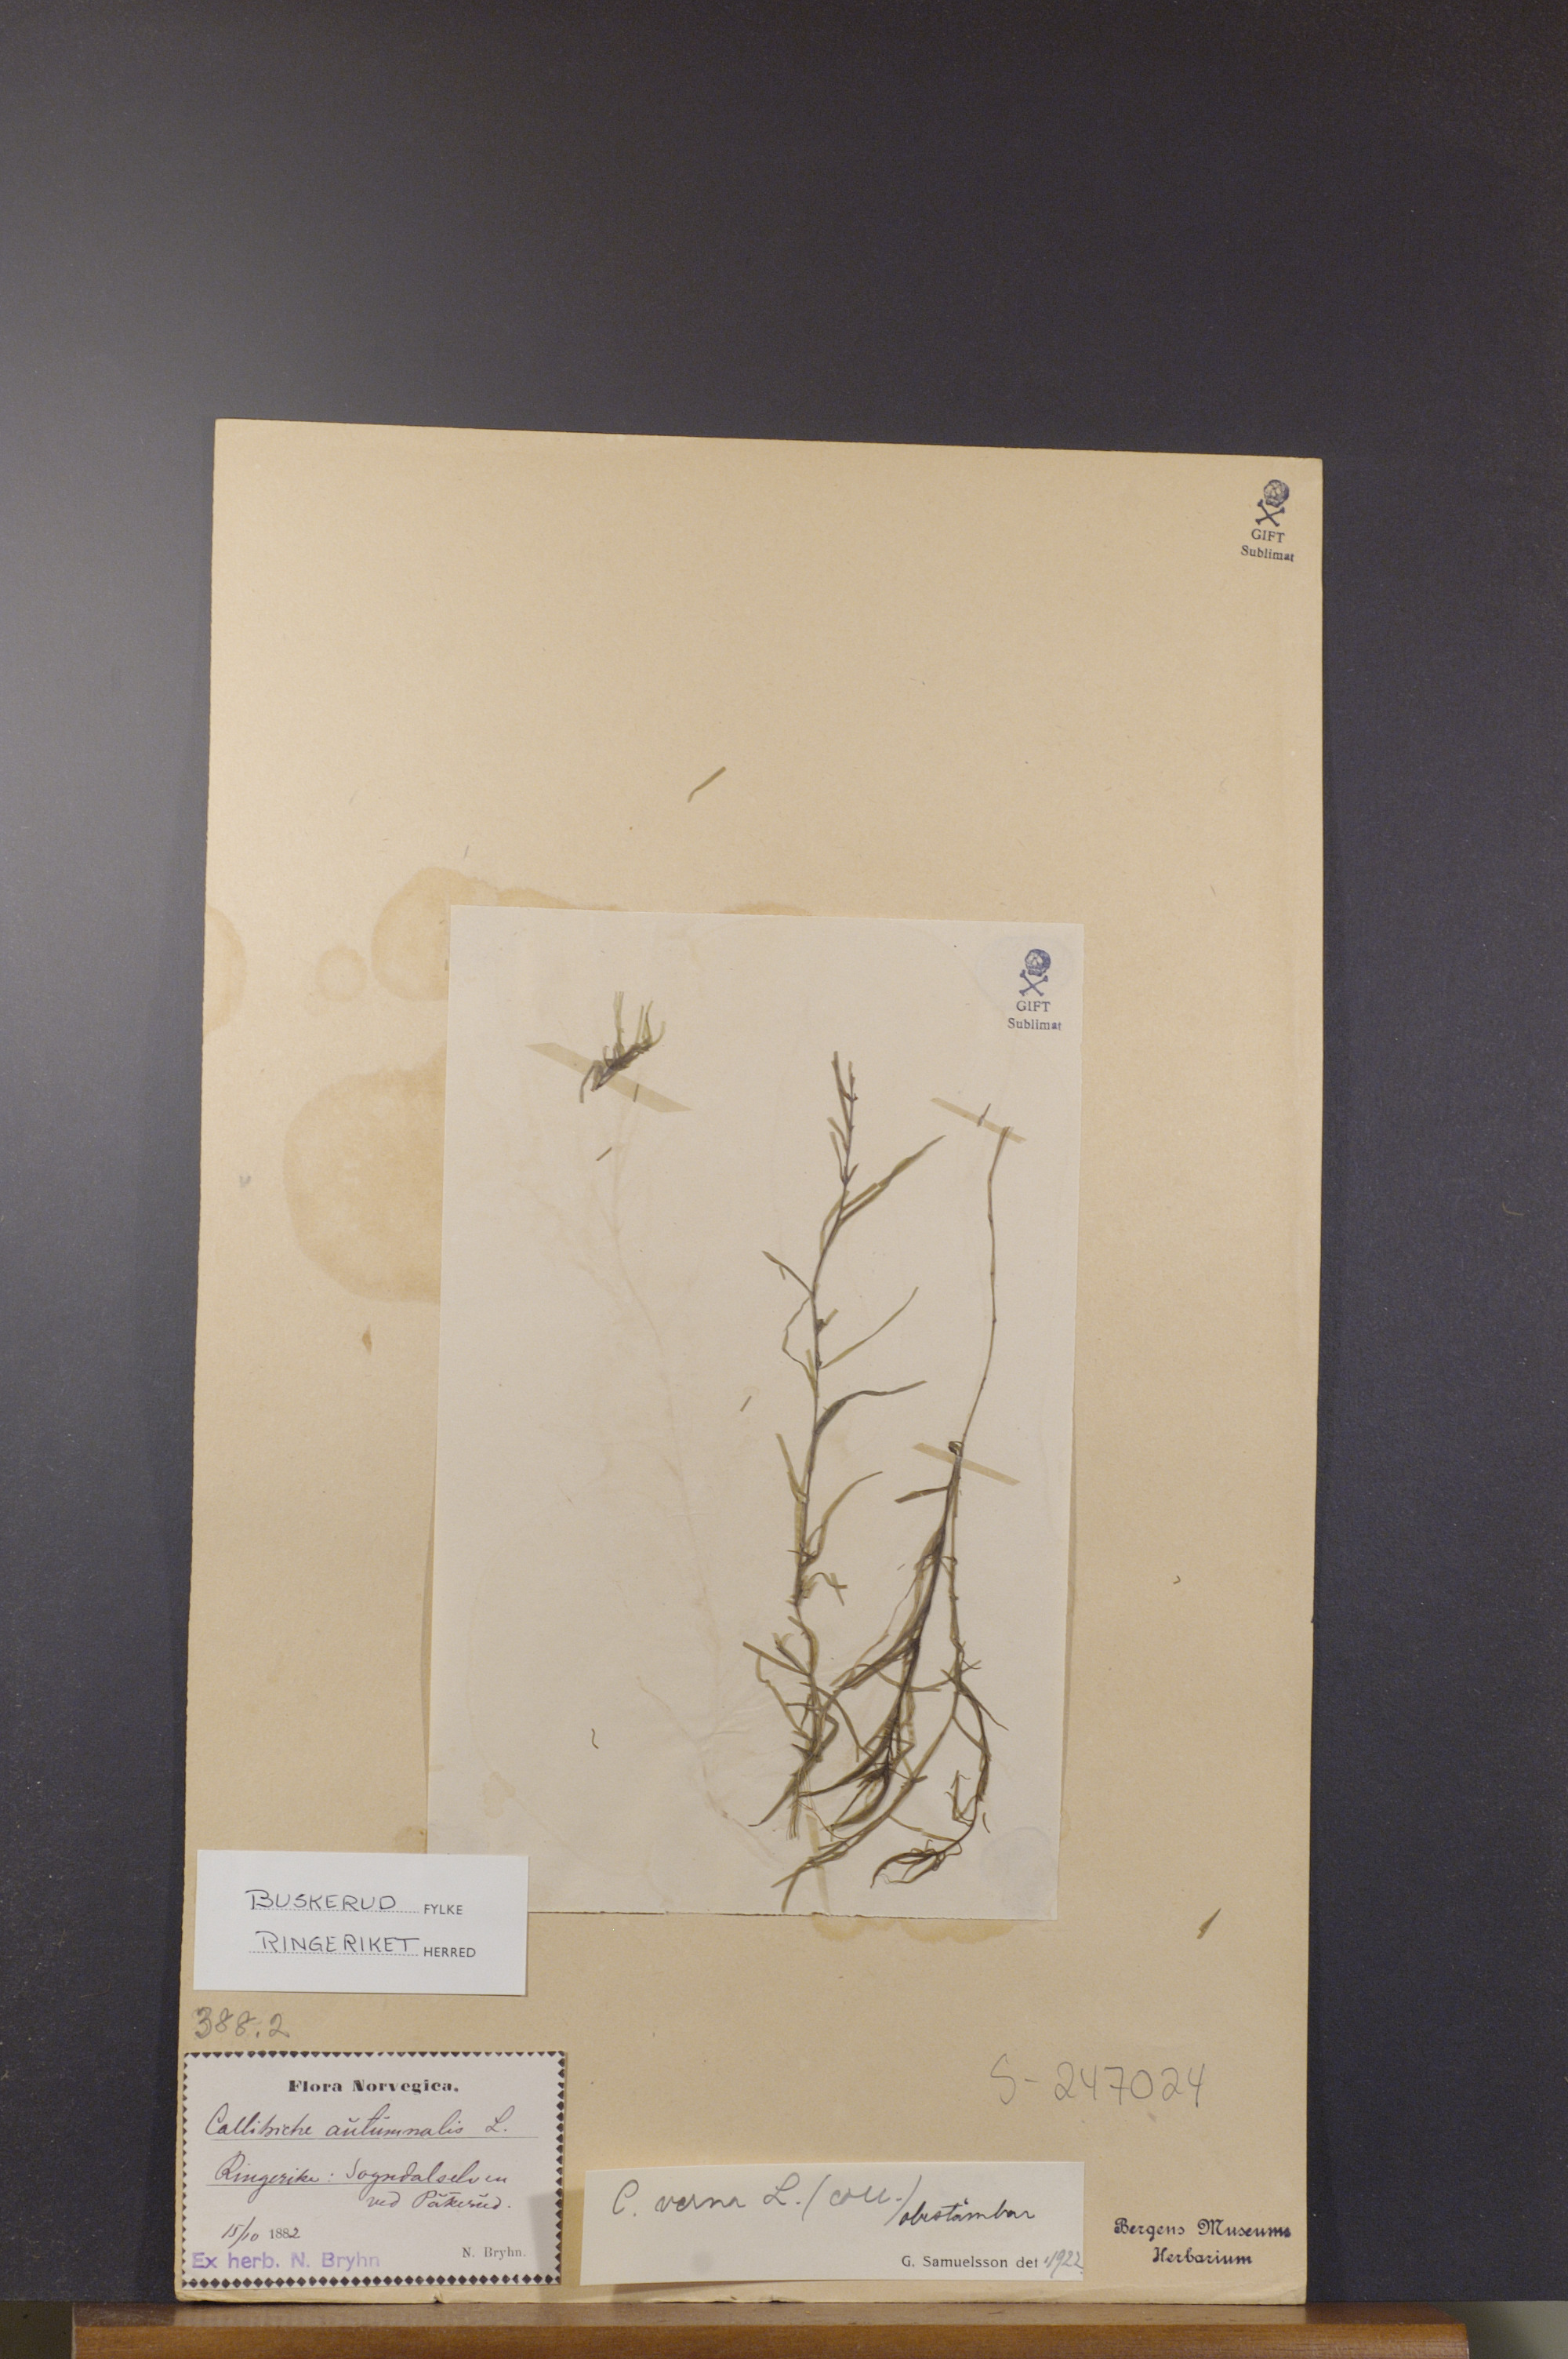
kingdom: Plantae
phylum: Tracheophyta
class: Magnoliopsida
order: Lamiales
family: Plantaginaceae
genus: Callitriche
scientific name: Callitriche palustris
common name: Spring water-starwort
